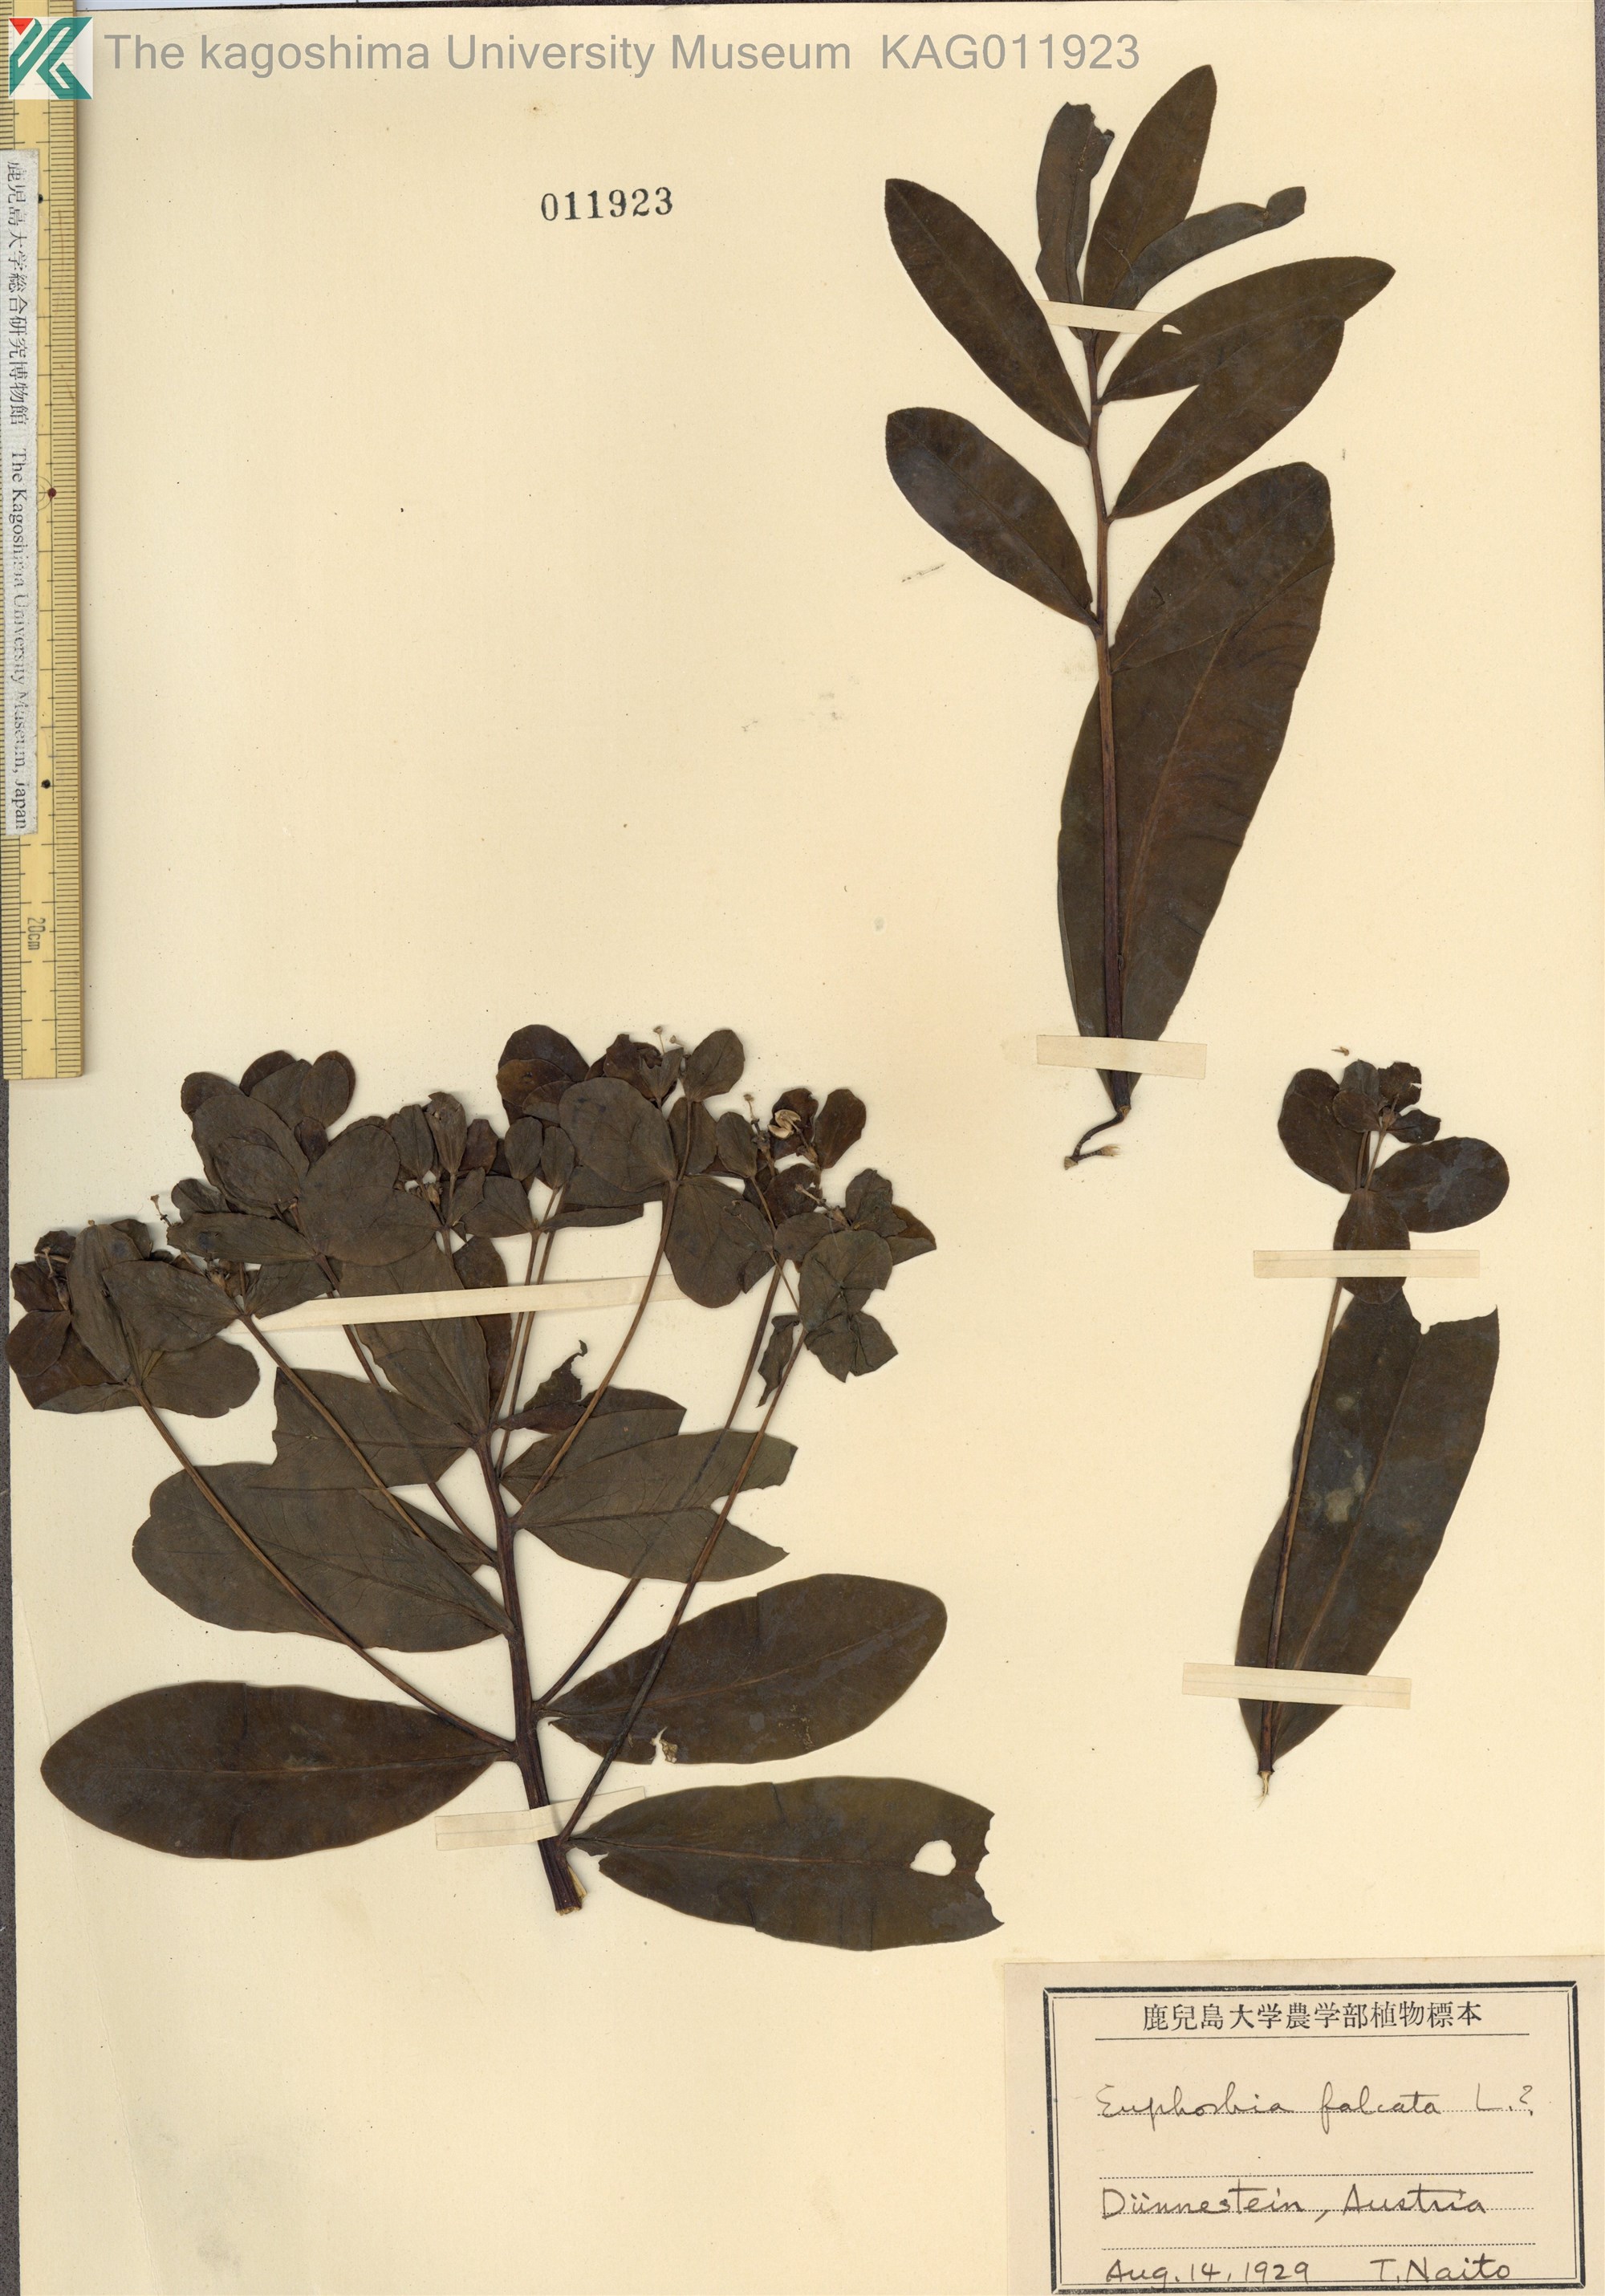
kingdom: Plantae
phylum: Tracheophyta
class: Magnoliopsida
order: Malpighiales
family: Euphorbiaceae
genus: Euphorbia
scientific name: Euphorbia falcata
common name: Sickle spurge
